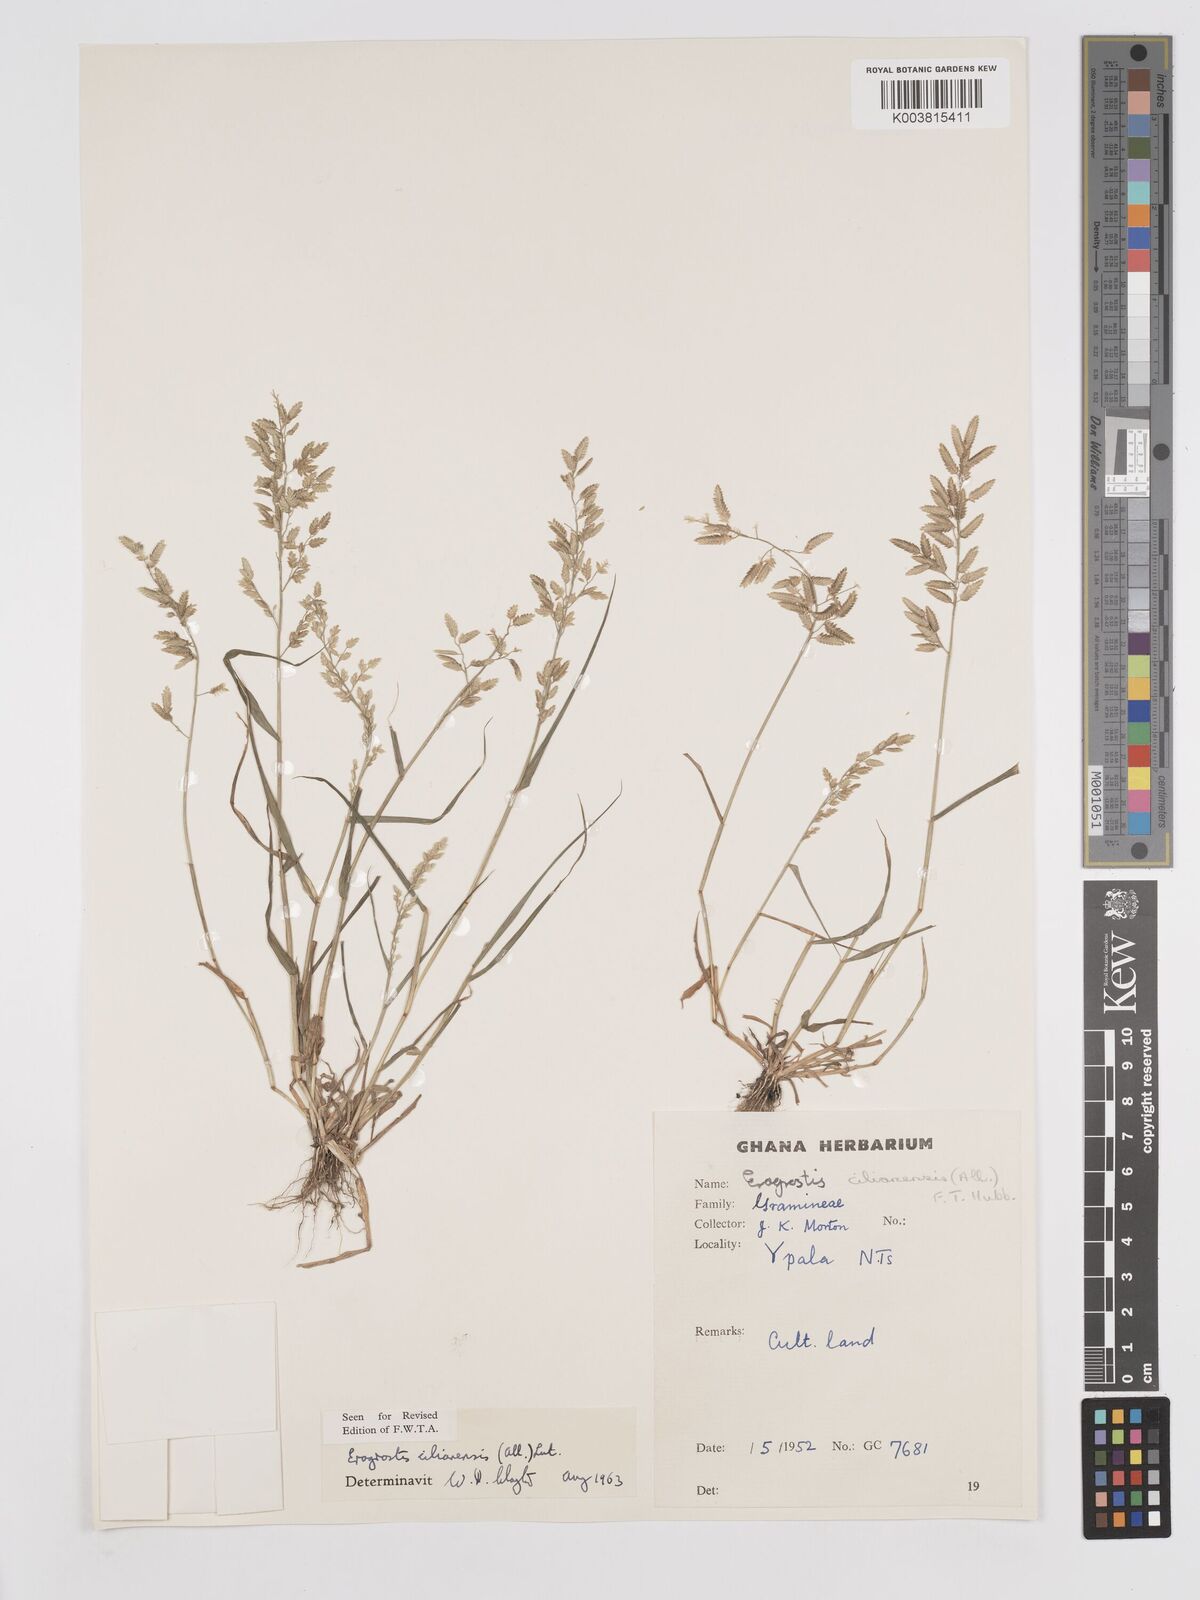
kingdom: Plantae
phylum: Tracheophyta
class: Liliopsida
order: Poales
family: Poaceae
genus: Eragrostis
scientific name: Eragrostis cilianensis
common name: Stinkgrass
